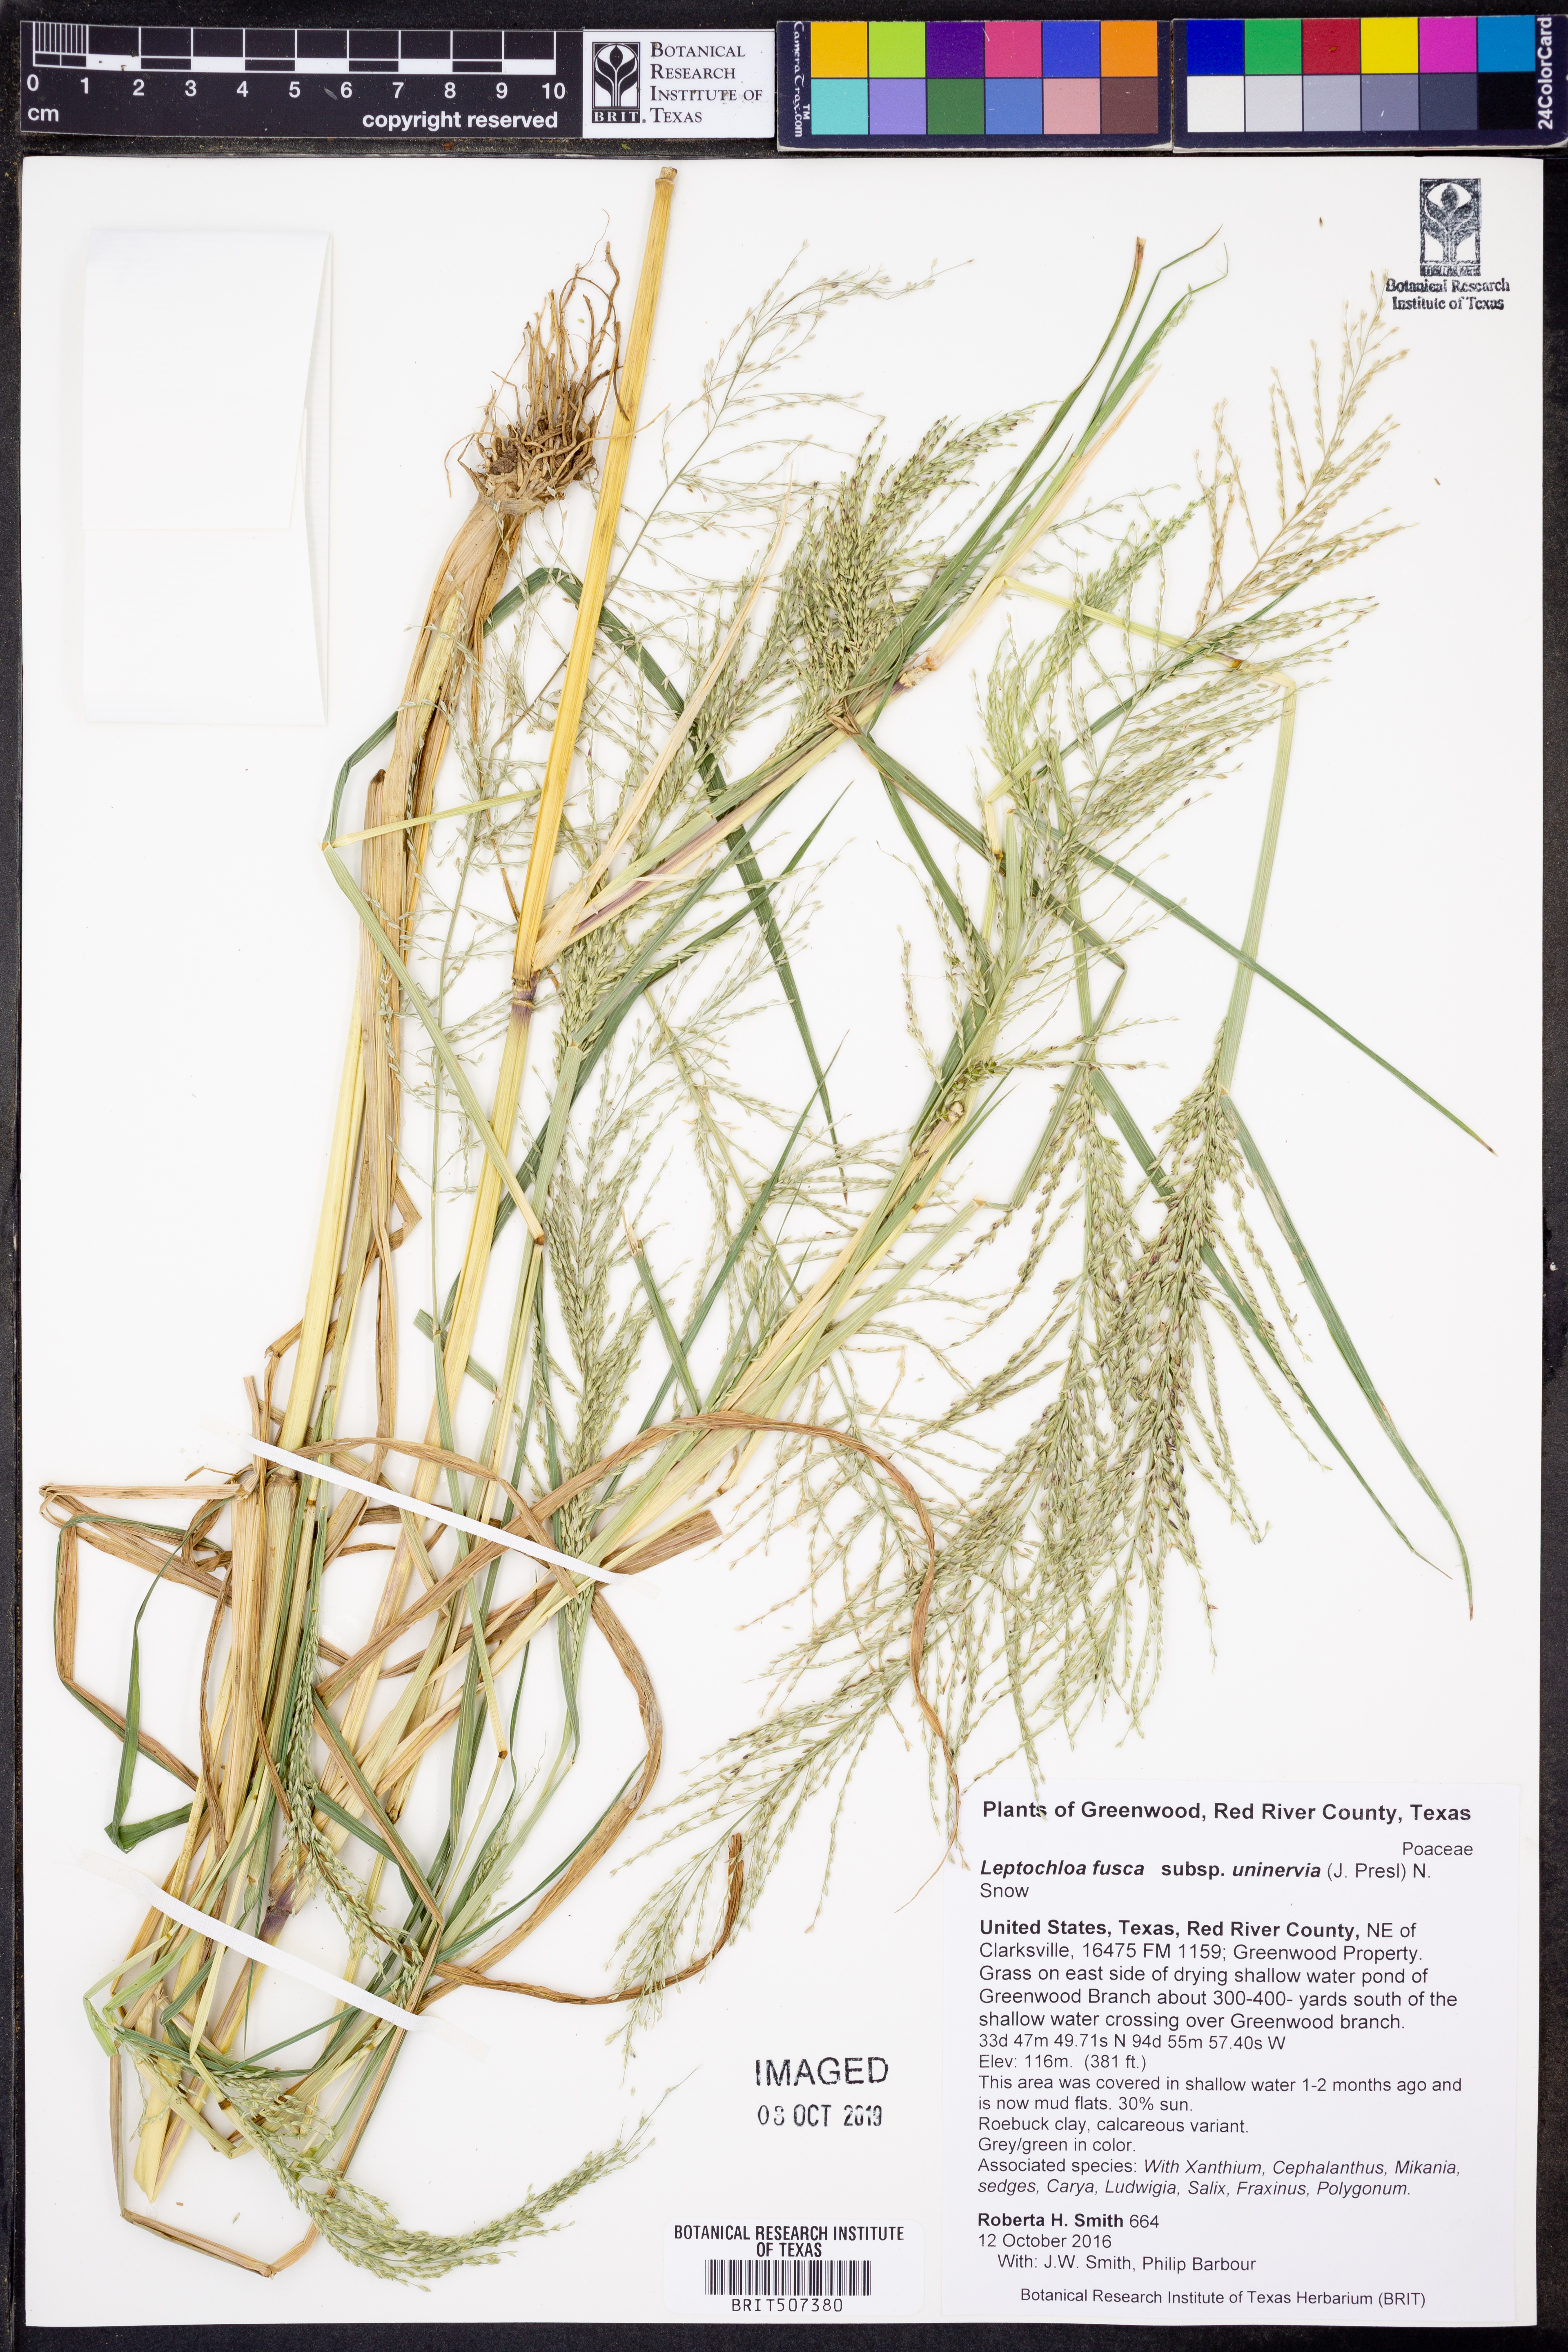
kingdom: Plantae
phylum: Tracheophyta
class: Liliopsida
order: Poales
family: Poaceae
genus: Diplachne
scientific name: Diplachne fusca
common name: Brown beetle grass
